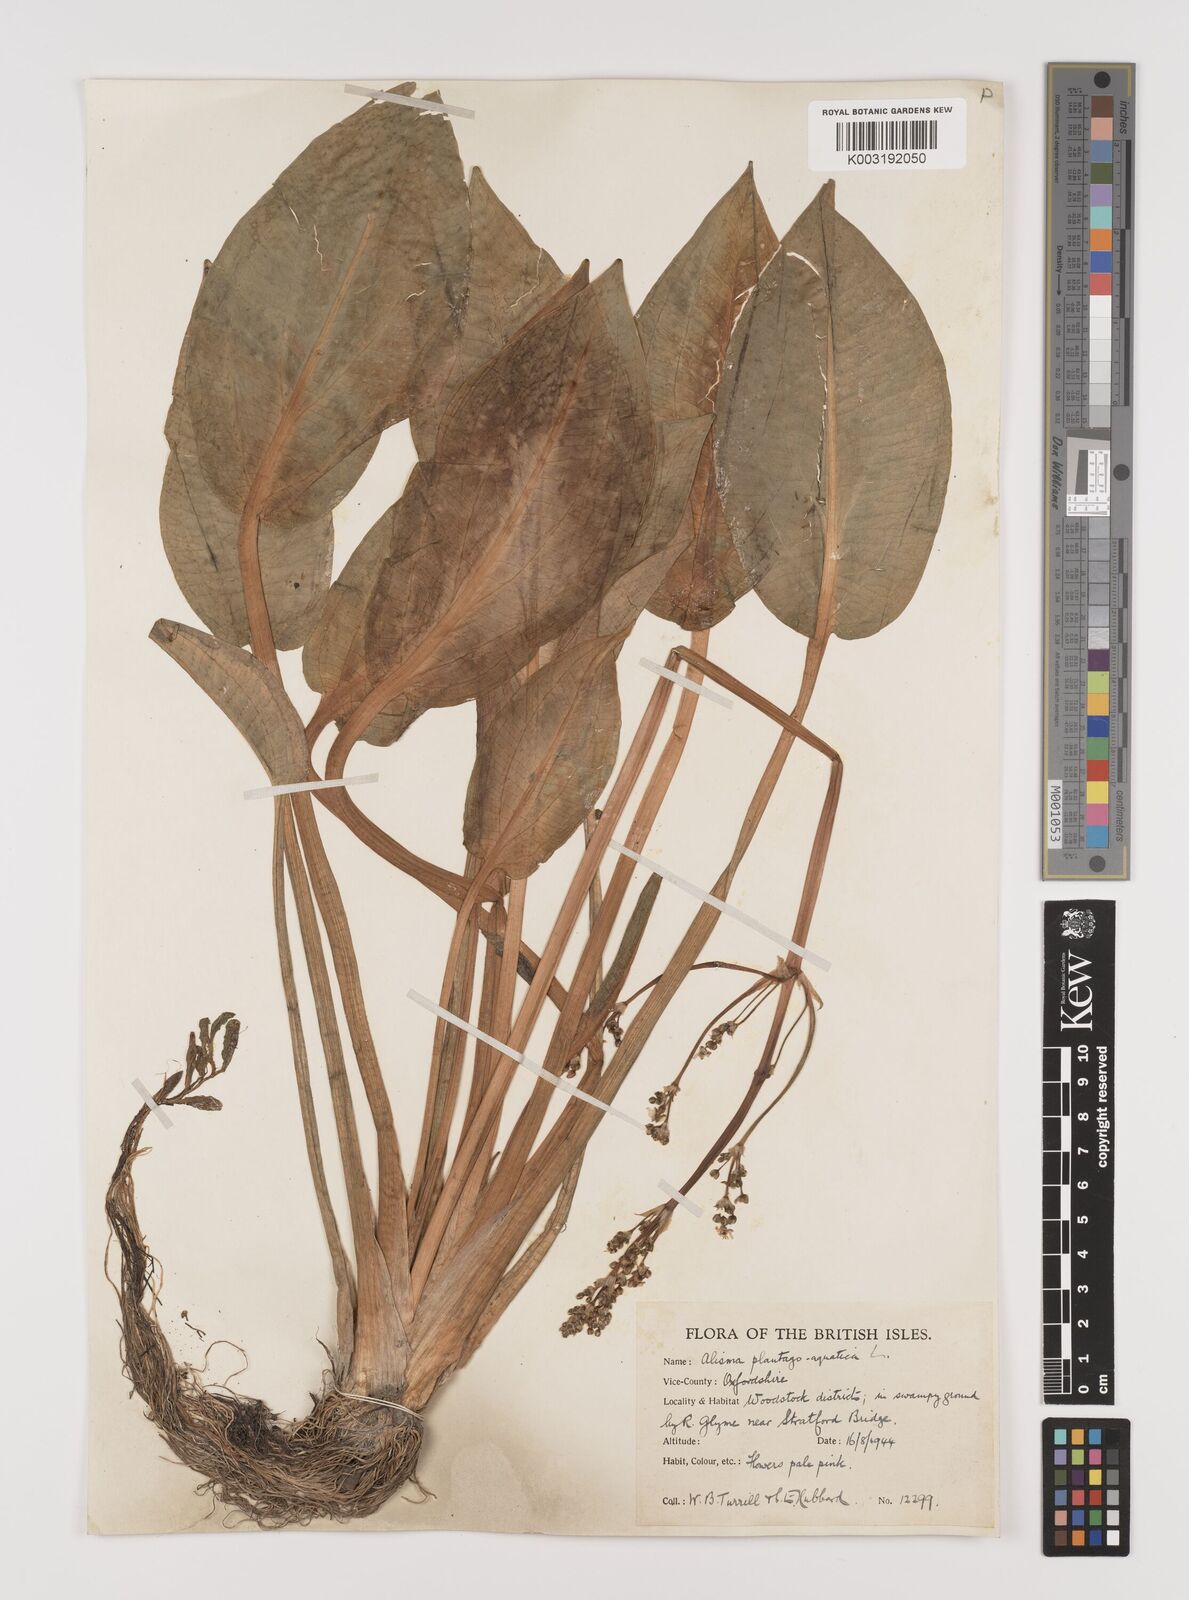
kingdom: Plantae
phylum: Tracheophyta
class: Liliopsida
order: Alismatales
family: Alismataceae
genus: Alisma
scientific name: Alisma plantago-aquatica
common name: Water-plantain
